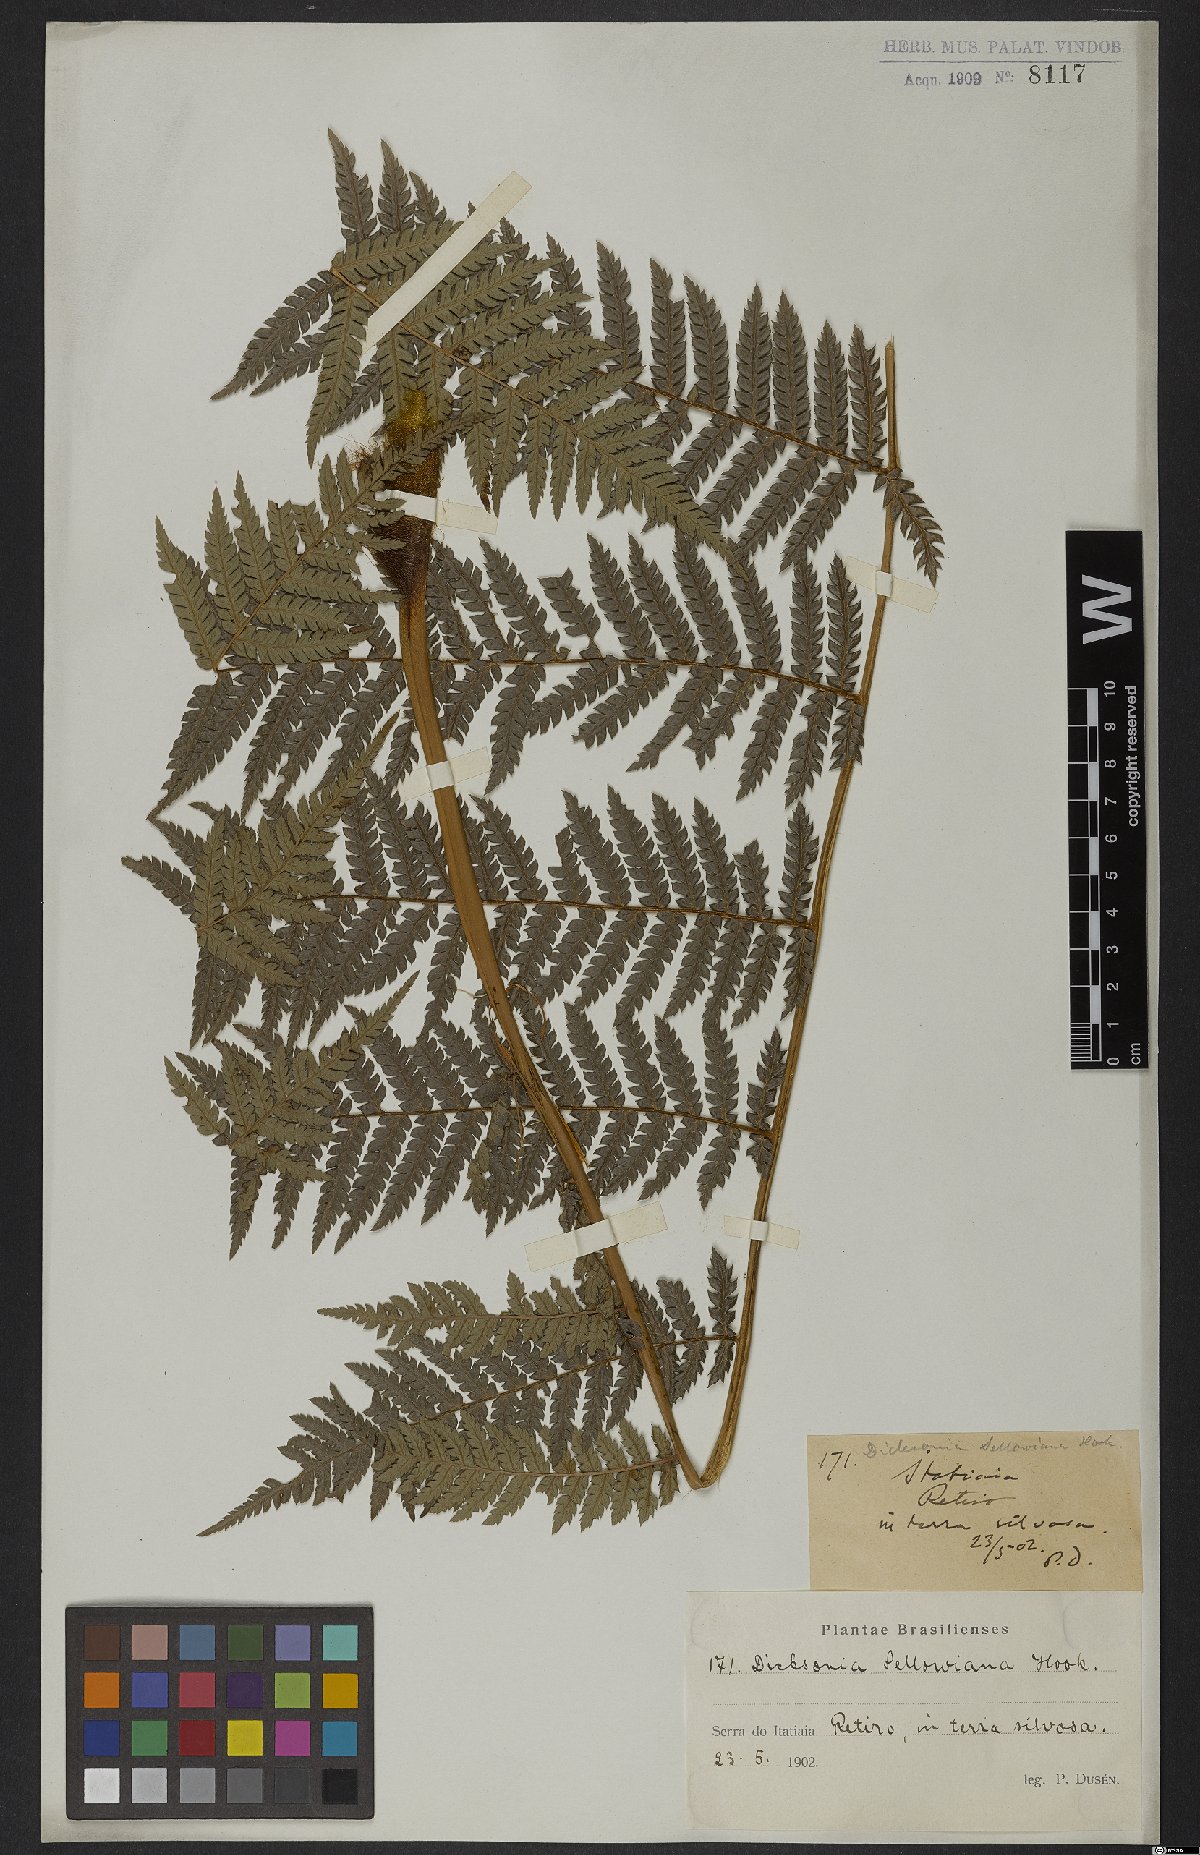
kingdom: Plantae
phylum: Tracheophyta
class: Polypodiopsida
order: Cyatheales
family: Dicksoniaceae
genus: Dicksonia
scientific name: Dicksonia sellowiana
